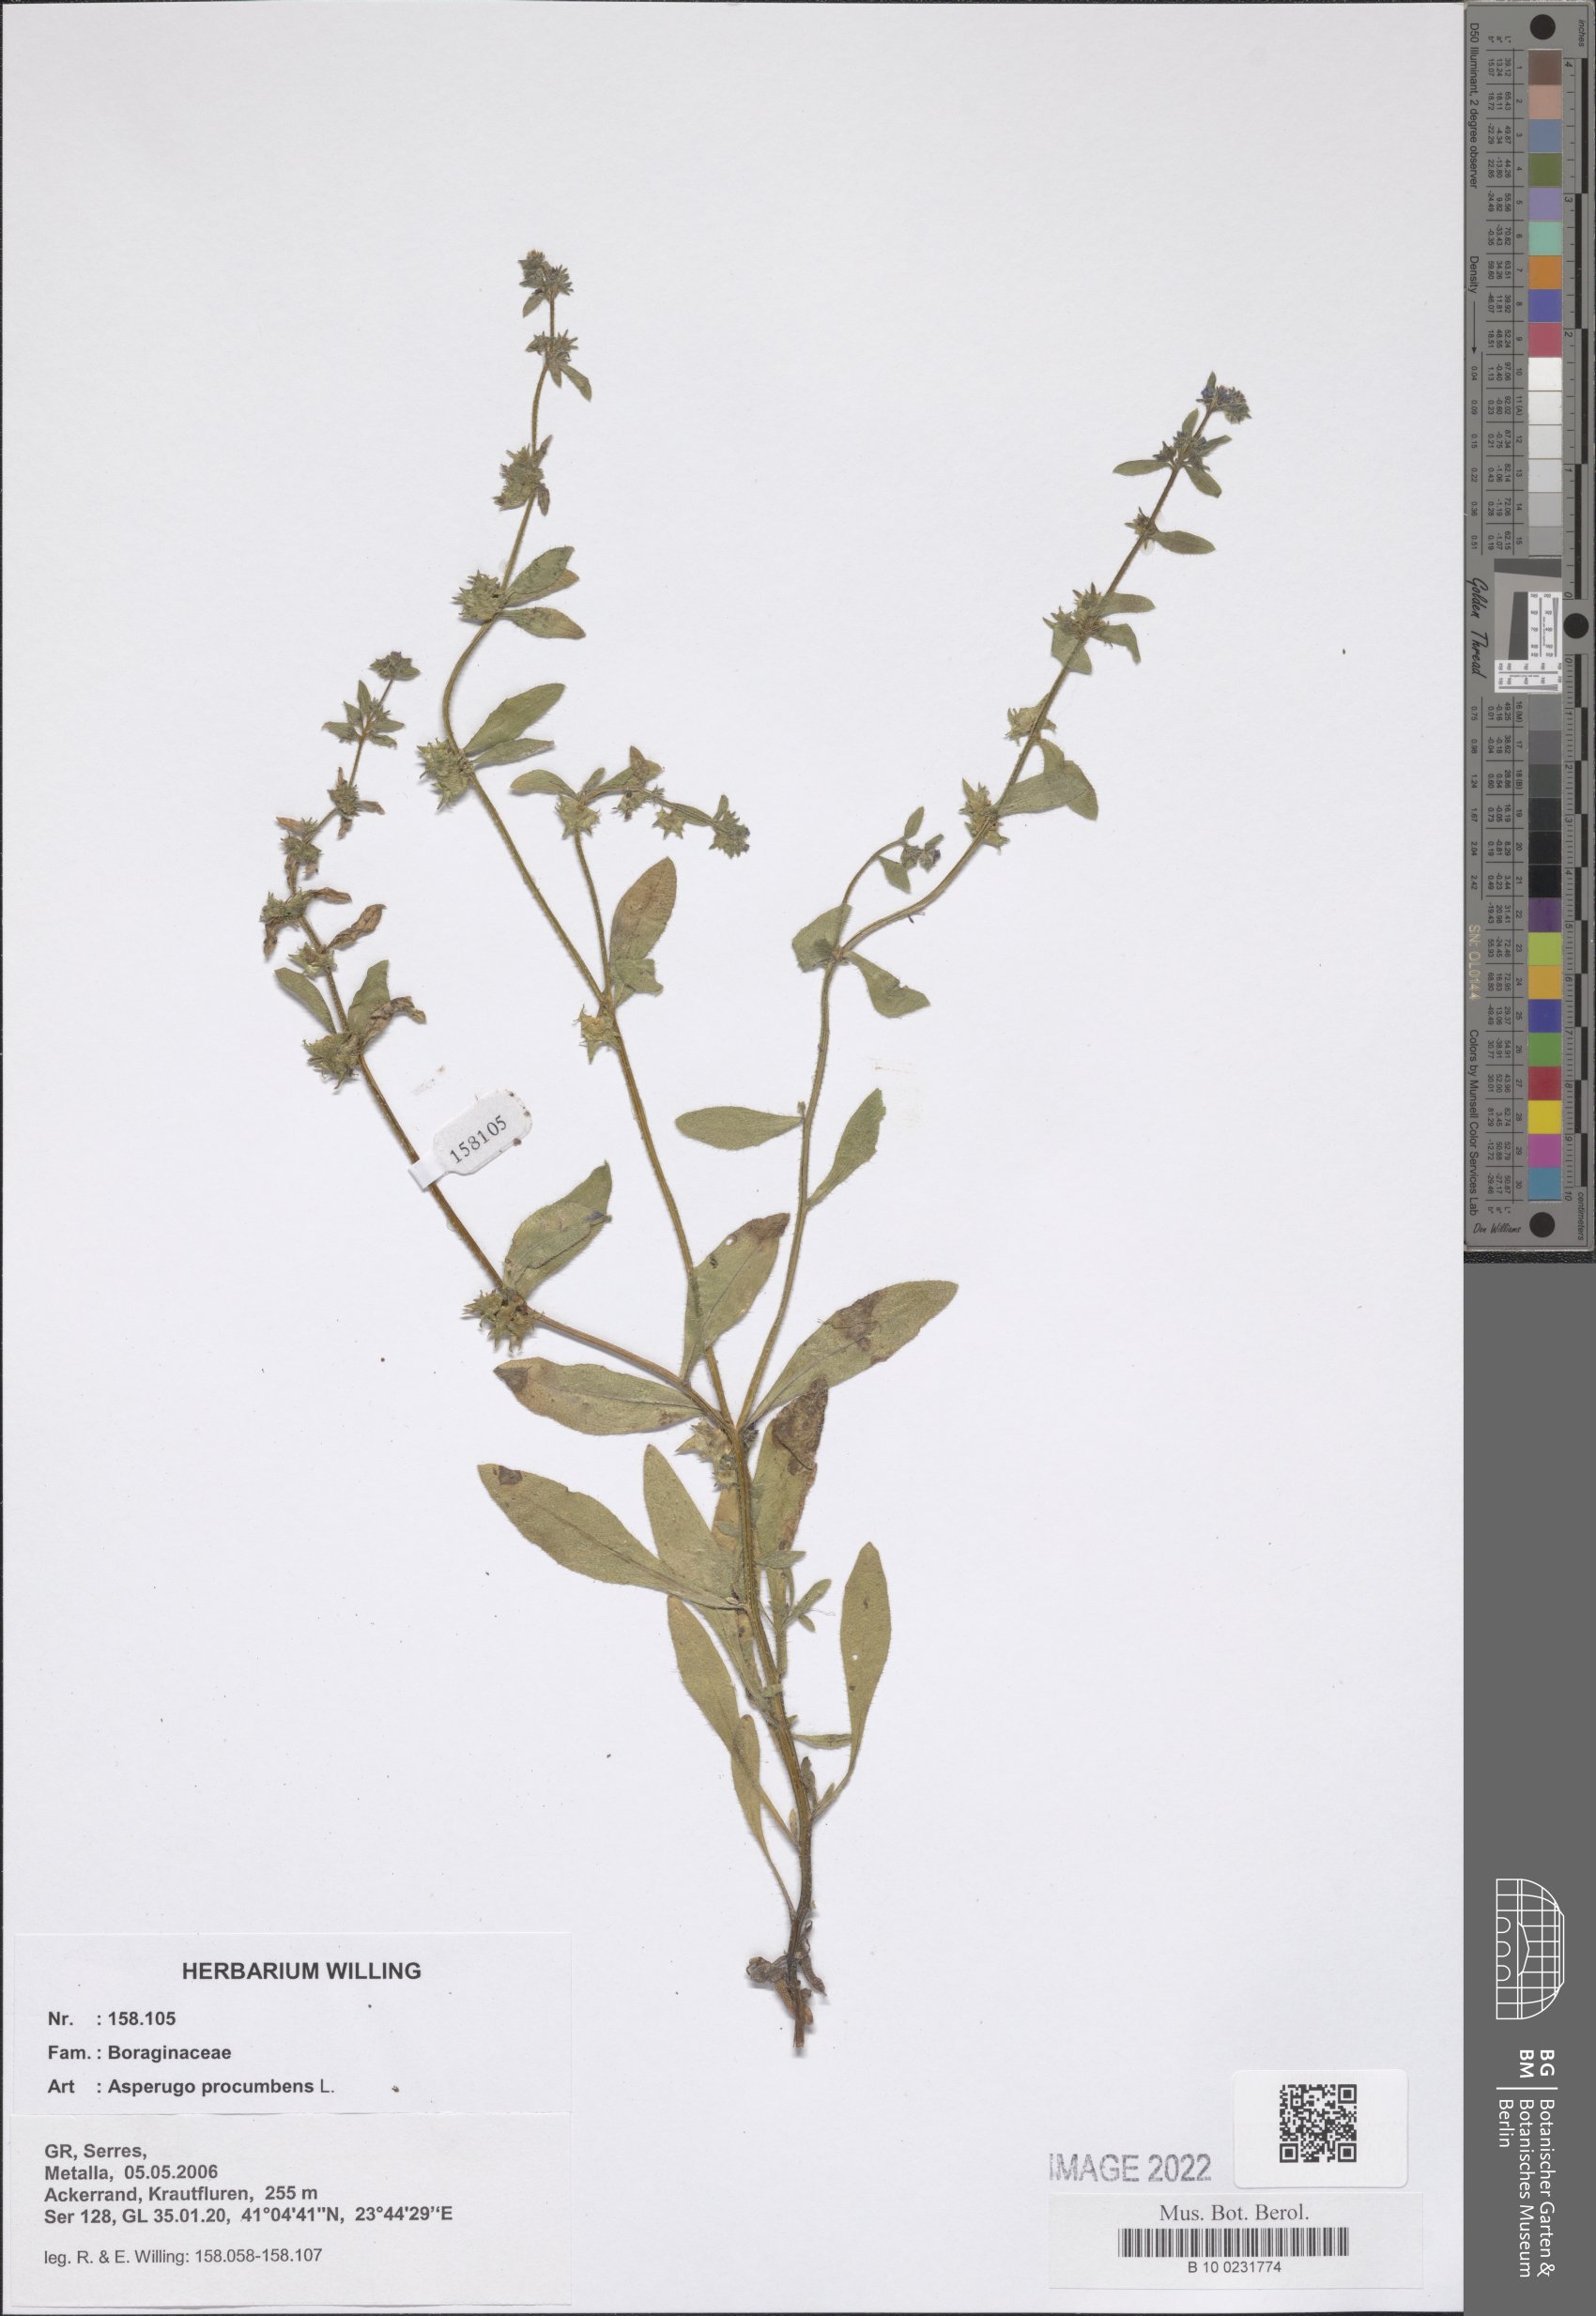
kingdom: Plantae
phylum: Tracheophyta
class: Magnoliopsida
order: Boraginales
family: Boraginaceae
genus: Asperugo
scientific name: Asperugo procumbens
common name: Madwort
